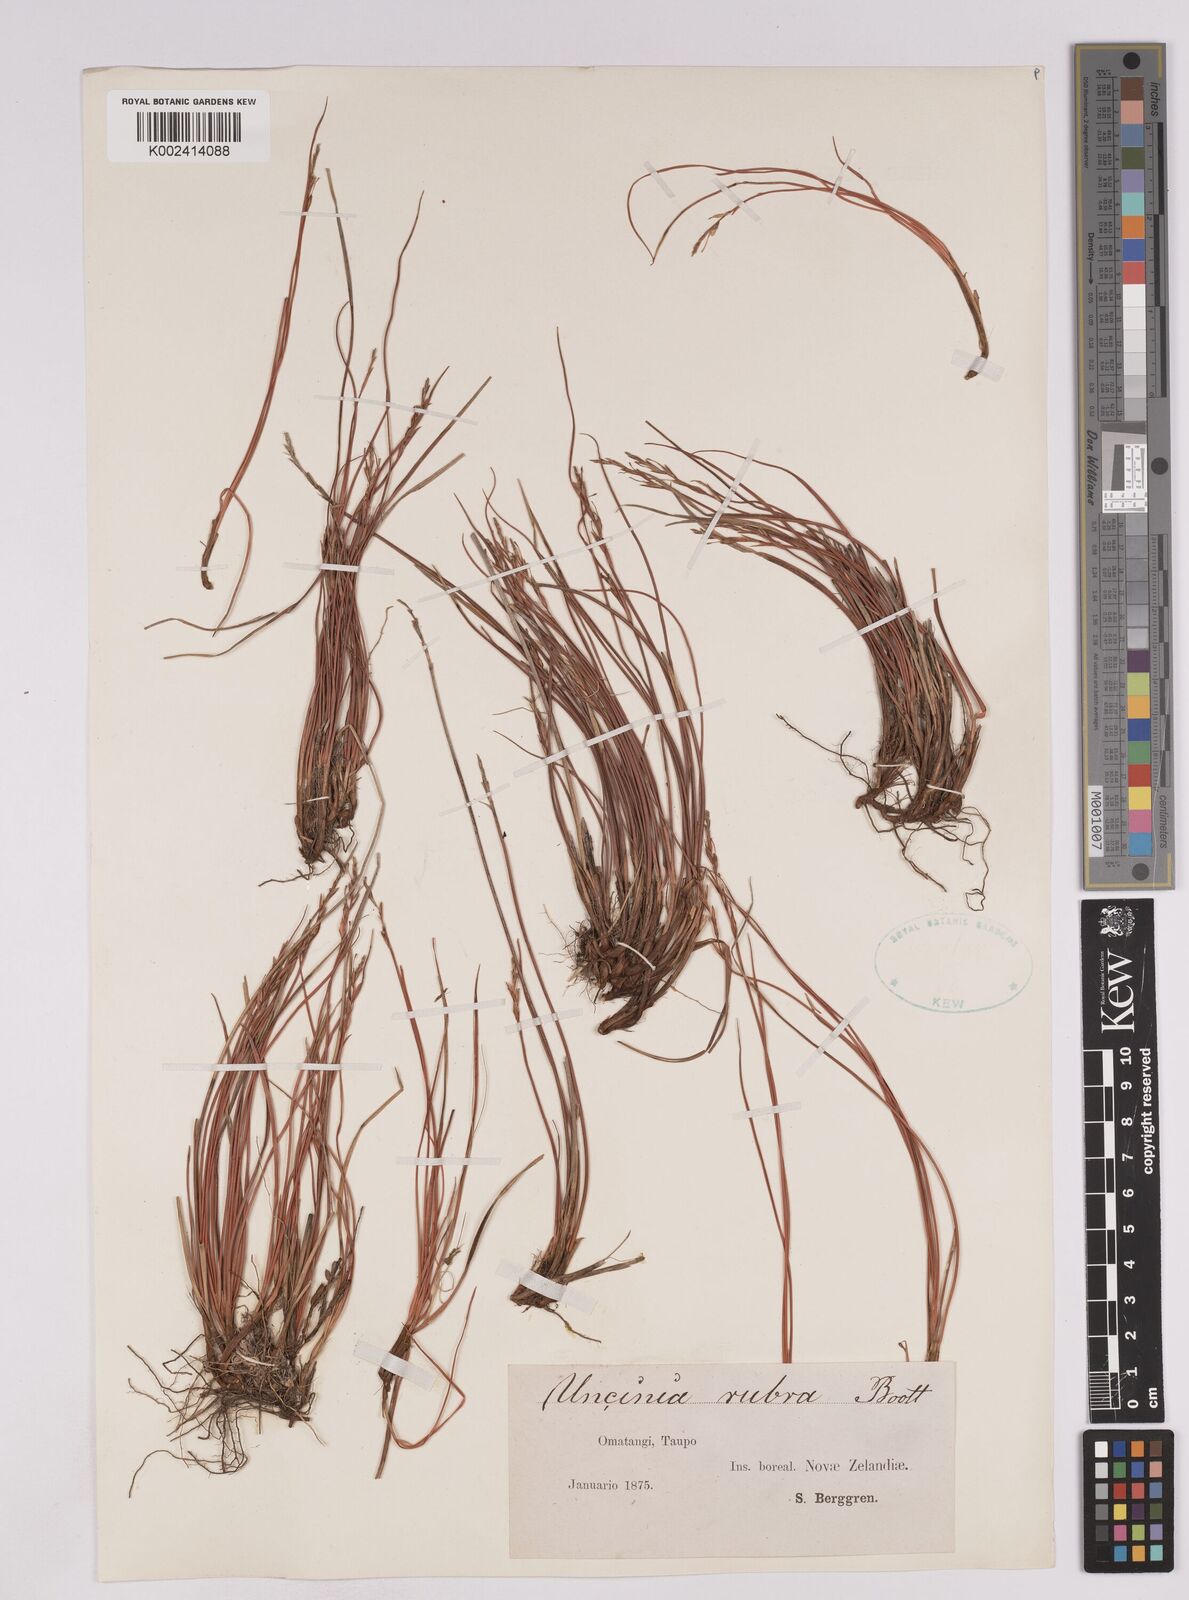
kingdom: Plantae
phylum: Tracheophyta
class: Liliopsida
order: Poales
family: Cyperaceae
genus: Carex
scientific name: Carex punicea
